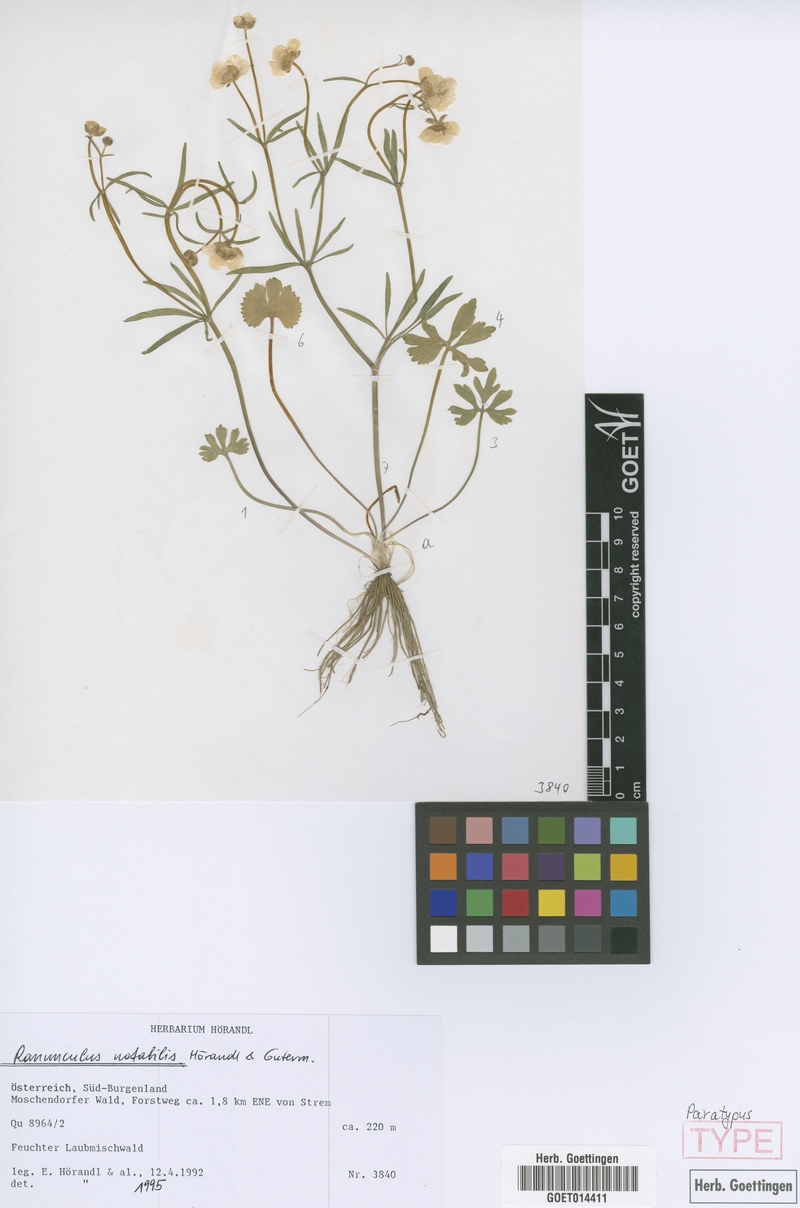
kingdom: Plantae
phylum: Tracheophyta
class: Magnoliopsida
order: Ranunculales
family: Ranunculaceae
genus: Ranunculus
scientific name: Ranunculus notabilis
